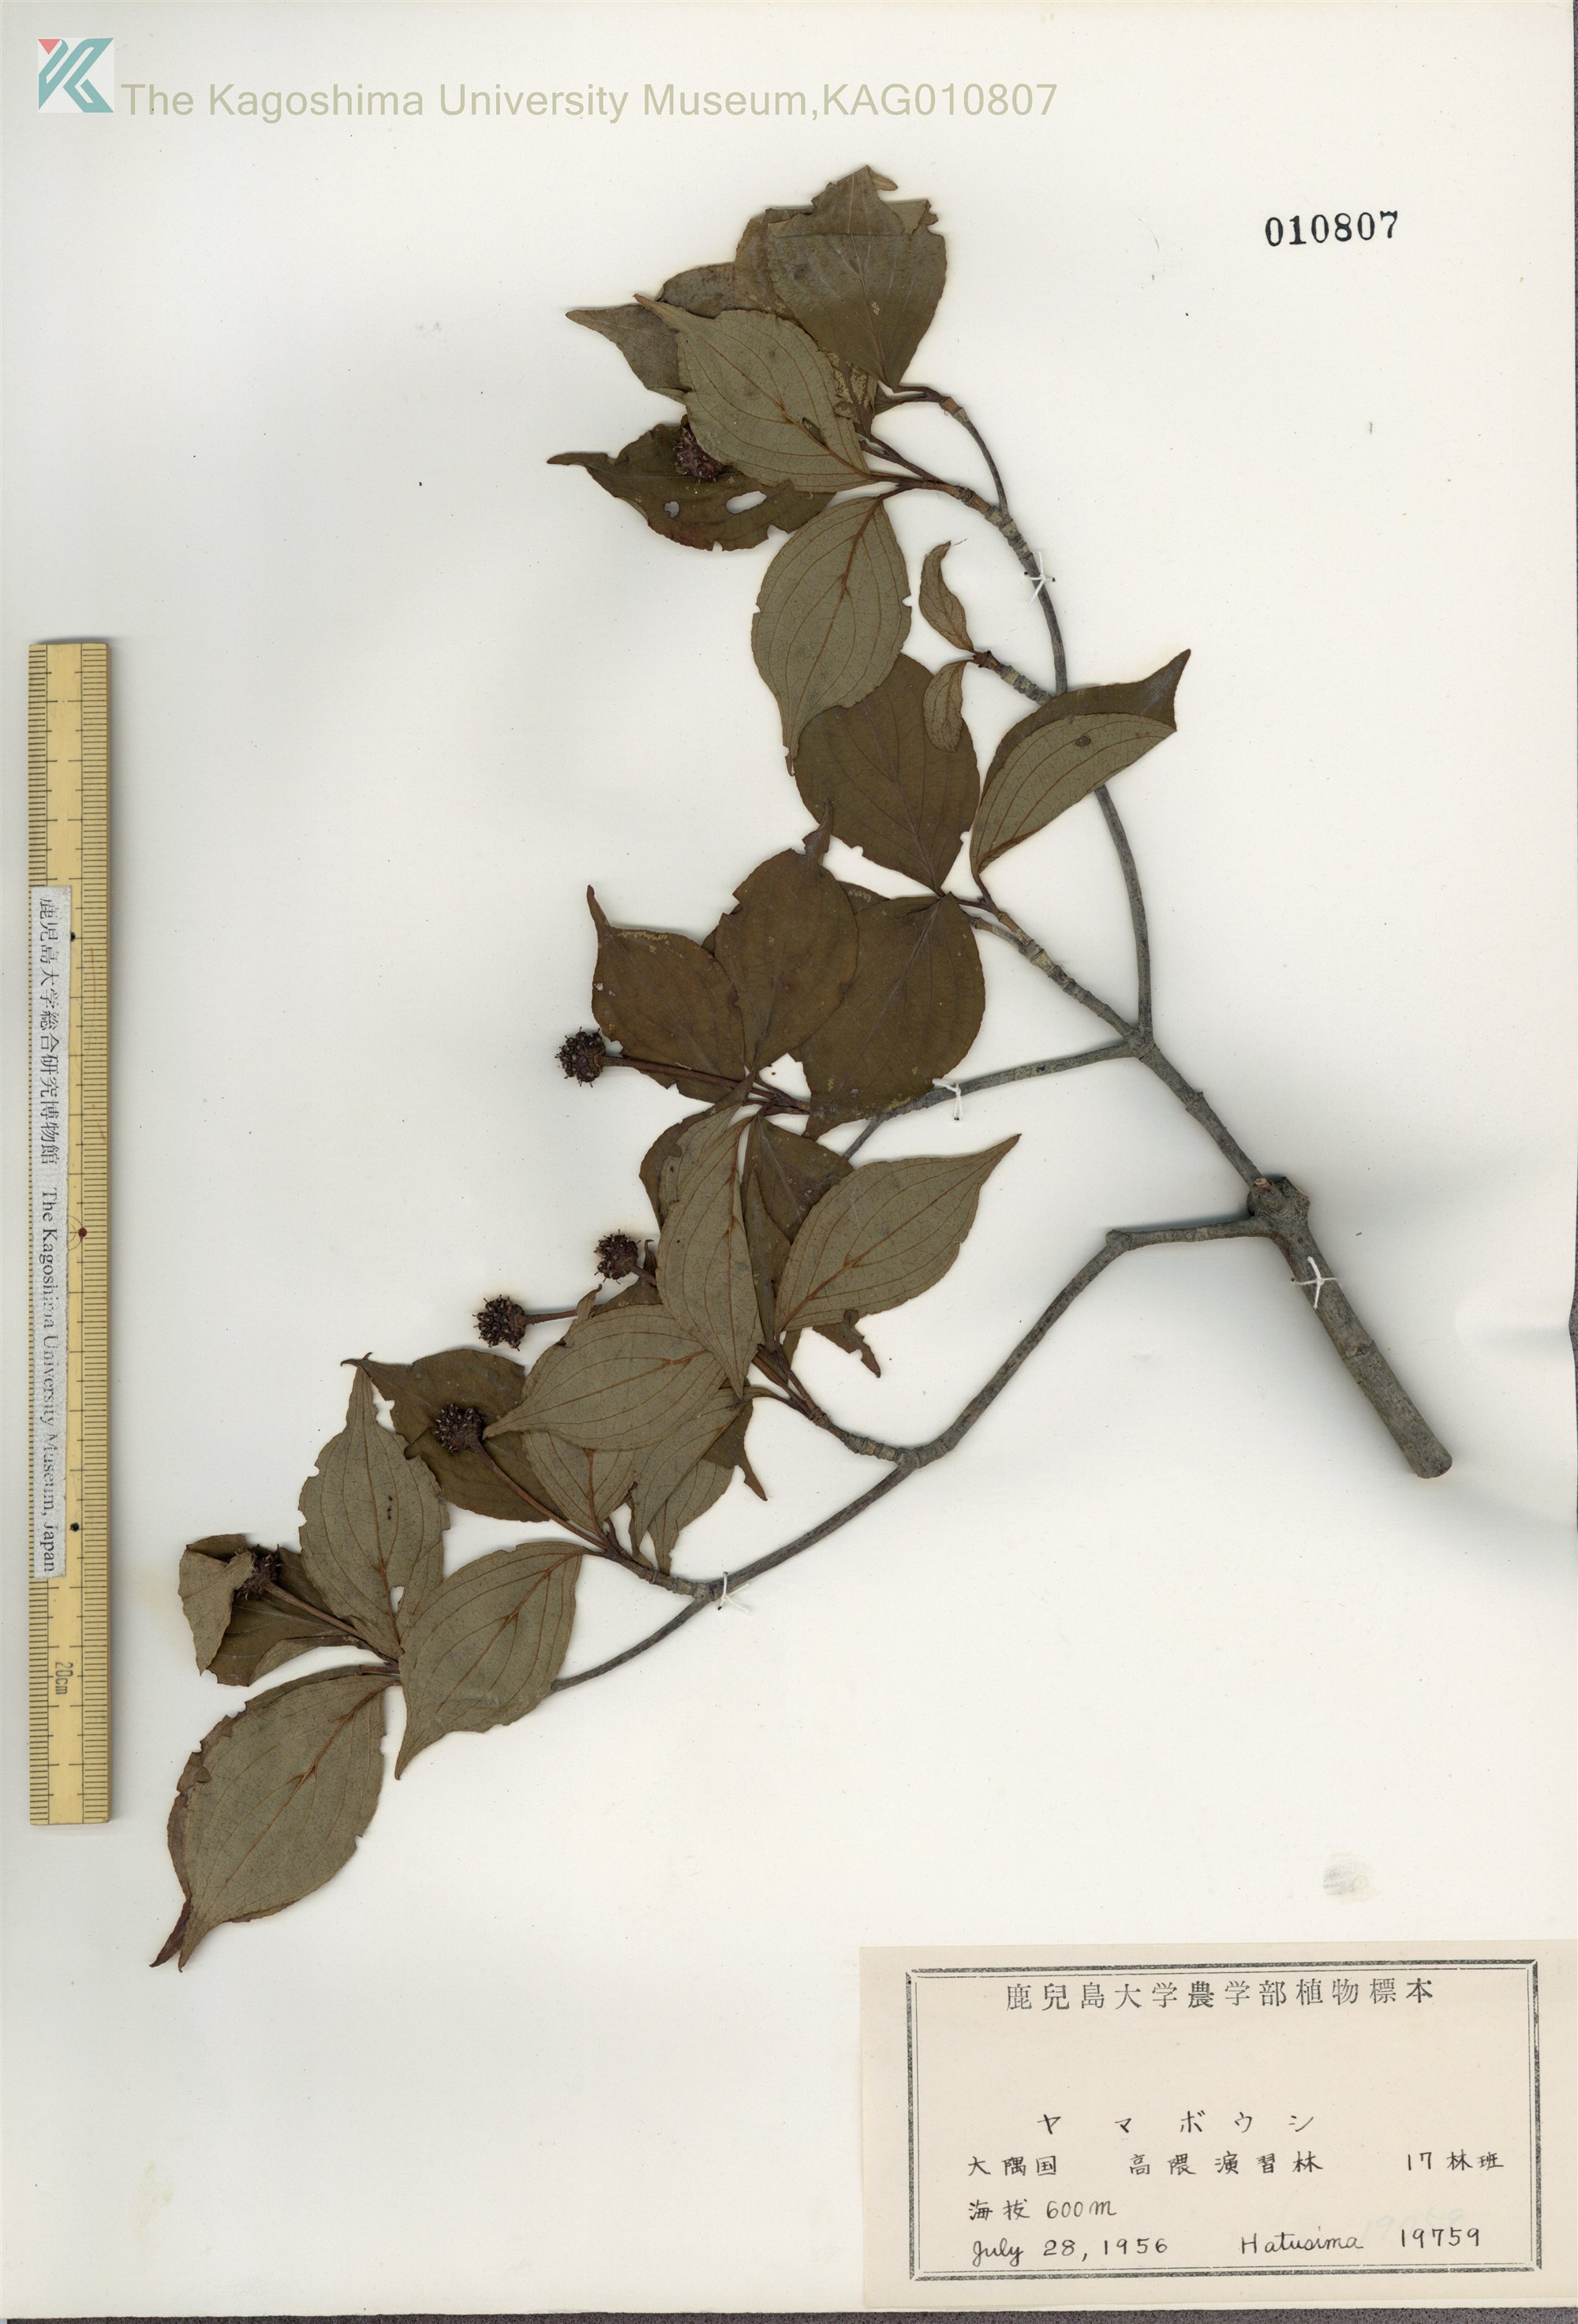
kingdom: Plantae
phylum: Tracheophyta
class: Magnoliopsida
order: Cornales
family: Cornaceae
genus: Cornus
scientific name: Cornus kousa
